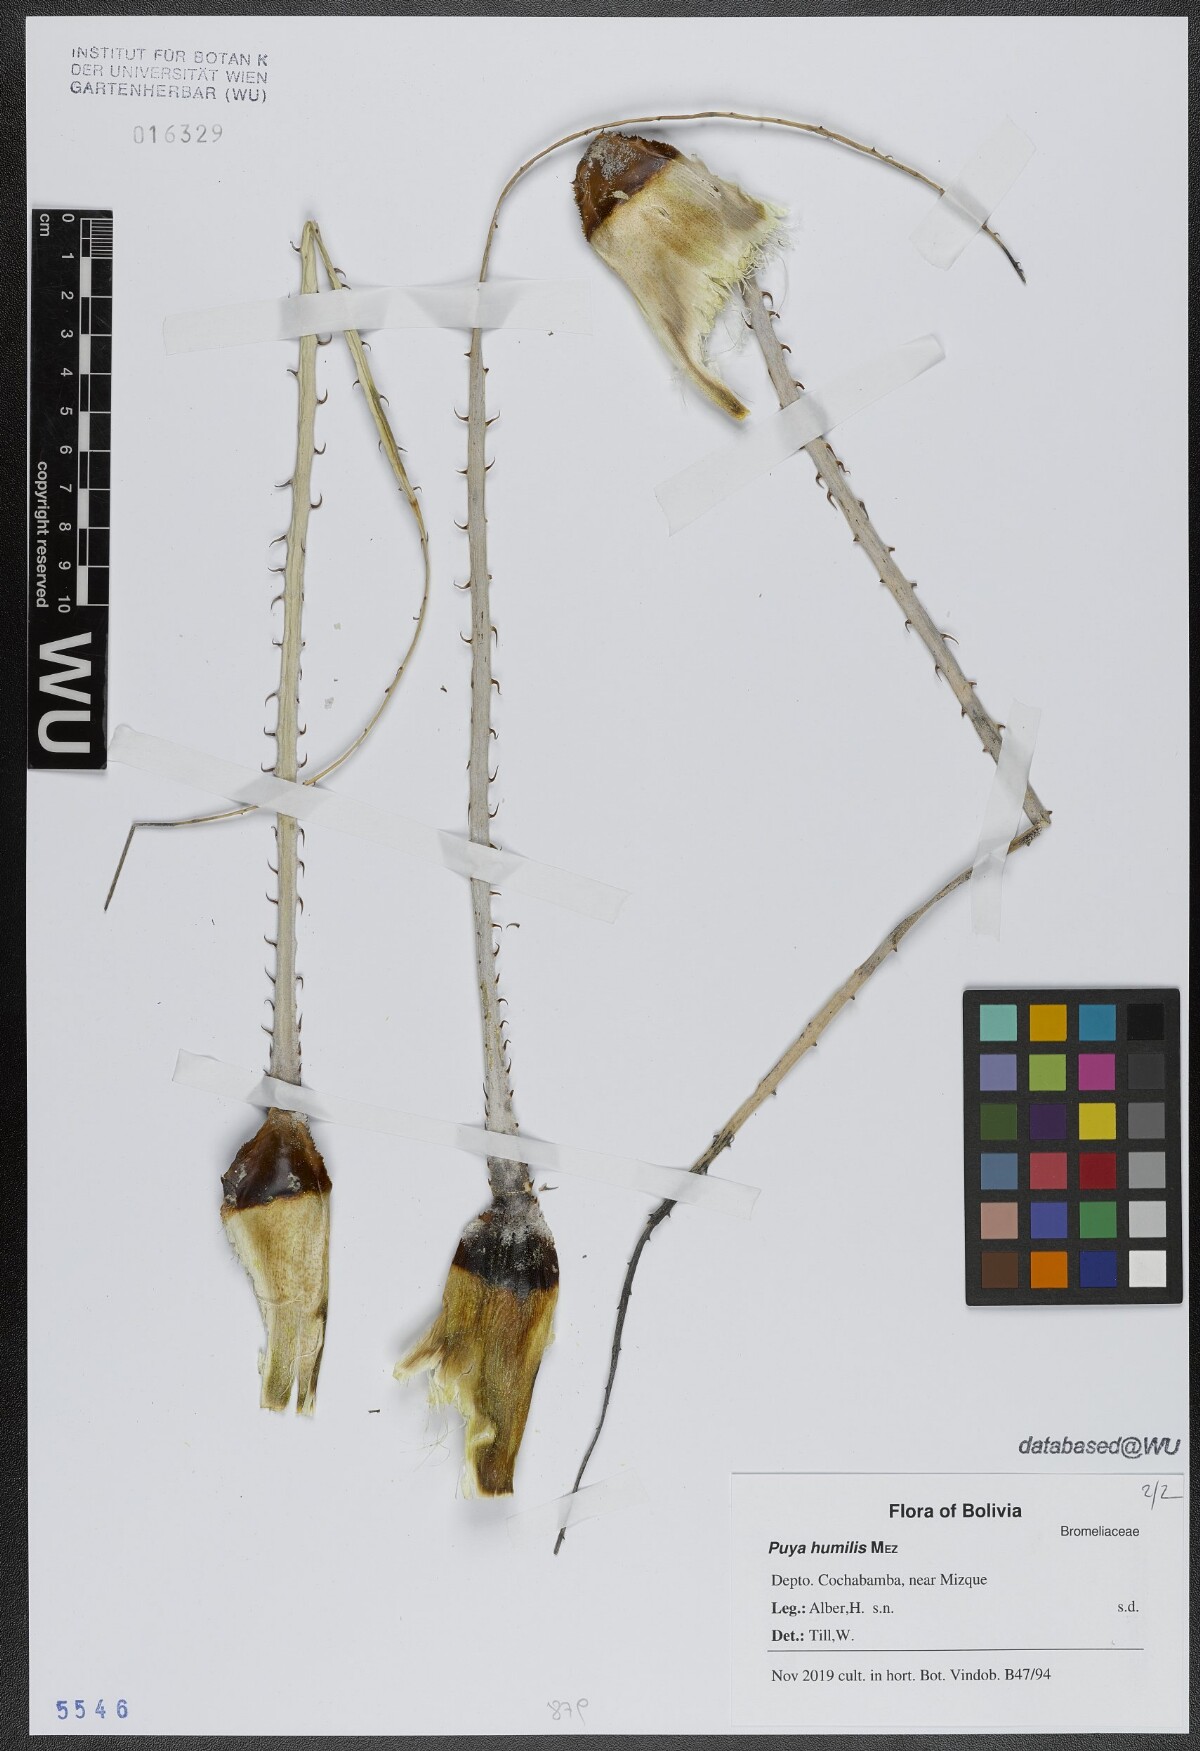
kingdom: Plantae
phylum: Tracheophyta
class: Liliopsida
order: Poales
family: Bromeliaceae
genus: Puya
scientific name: Puya humilis
